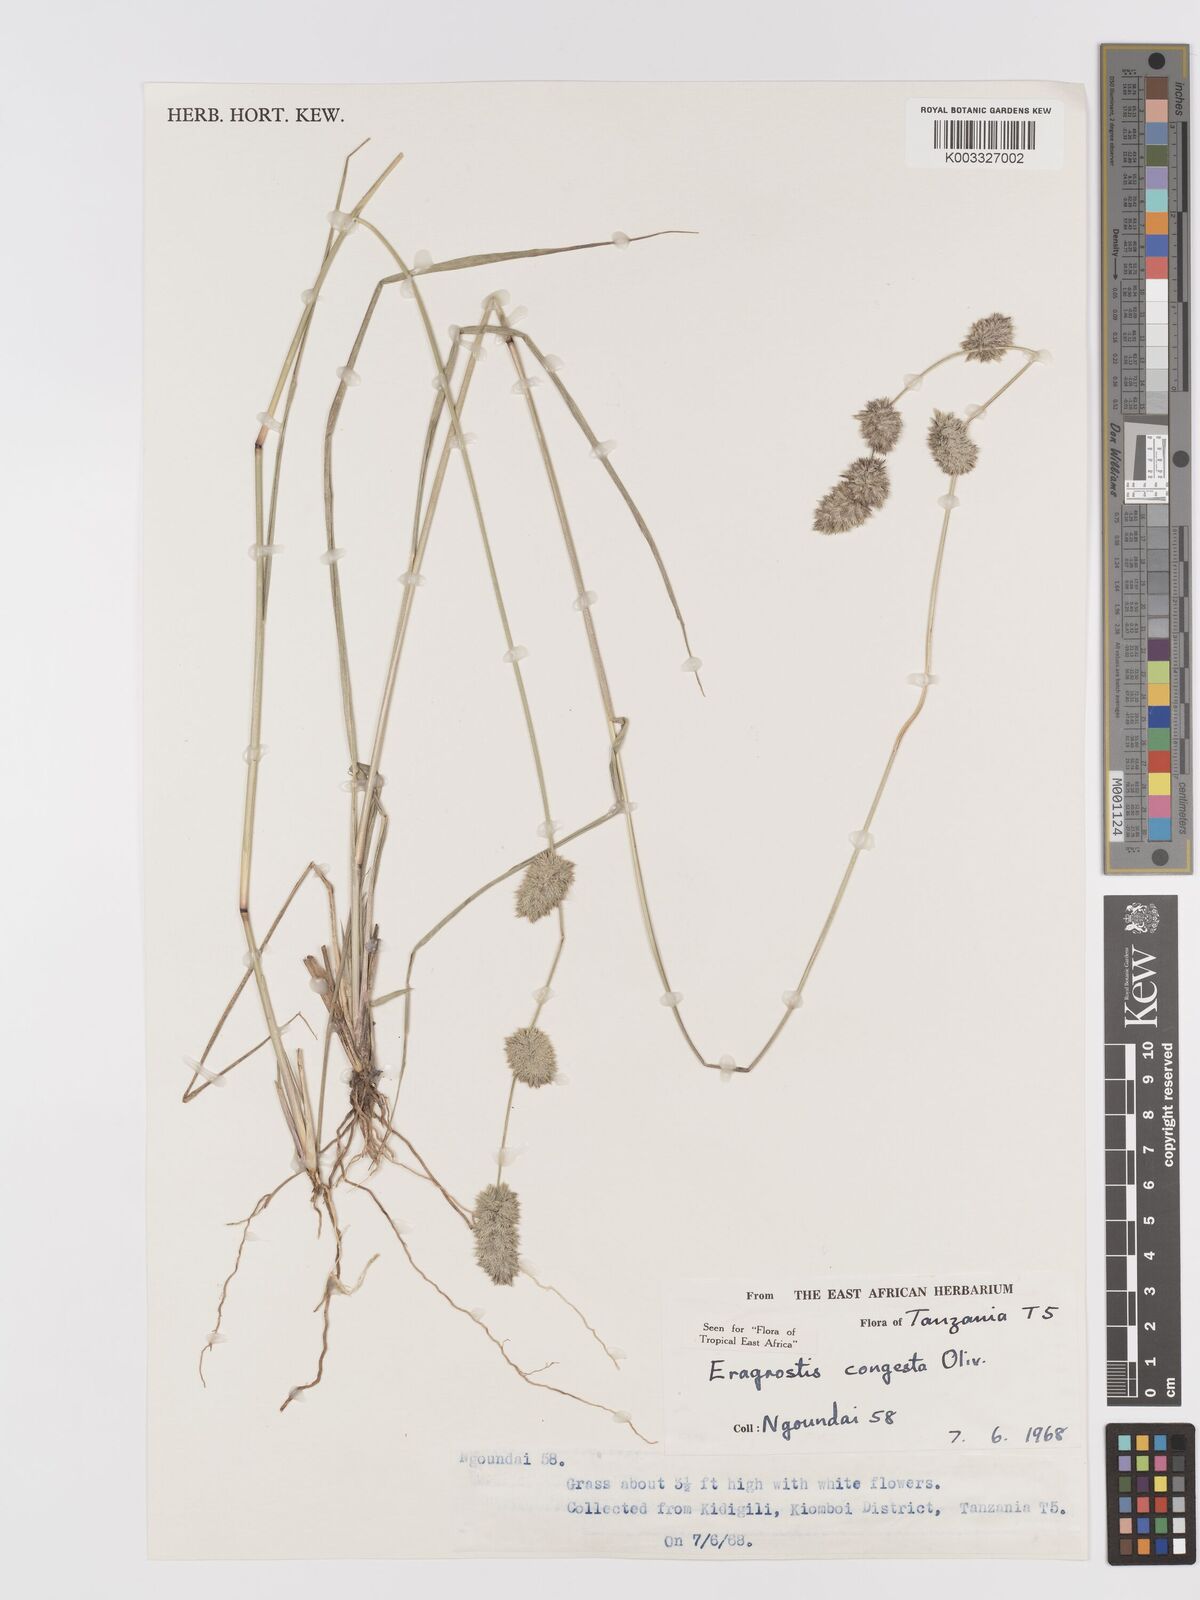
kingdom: Plantae
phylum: Tracheophyta
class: Liliopsida
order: Poales
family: Poaceae
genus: Eragrostis
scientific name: Eragrostis congesta
